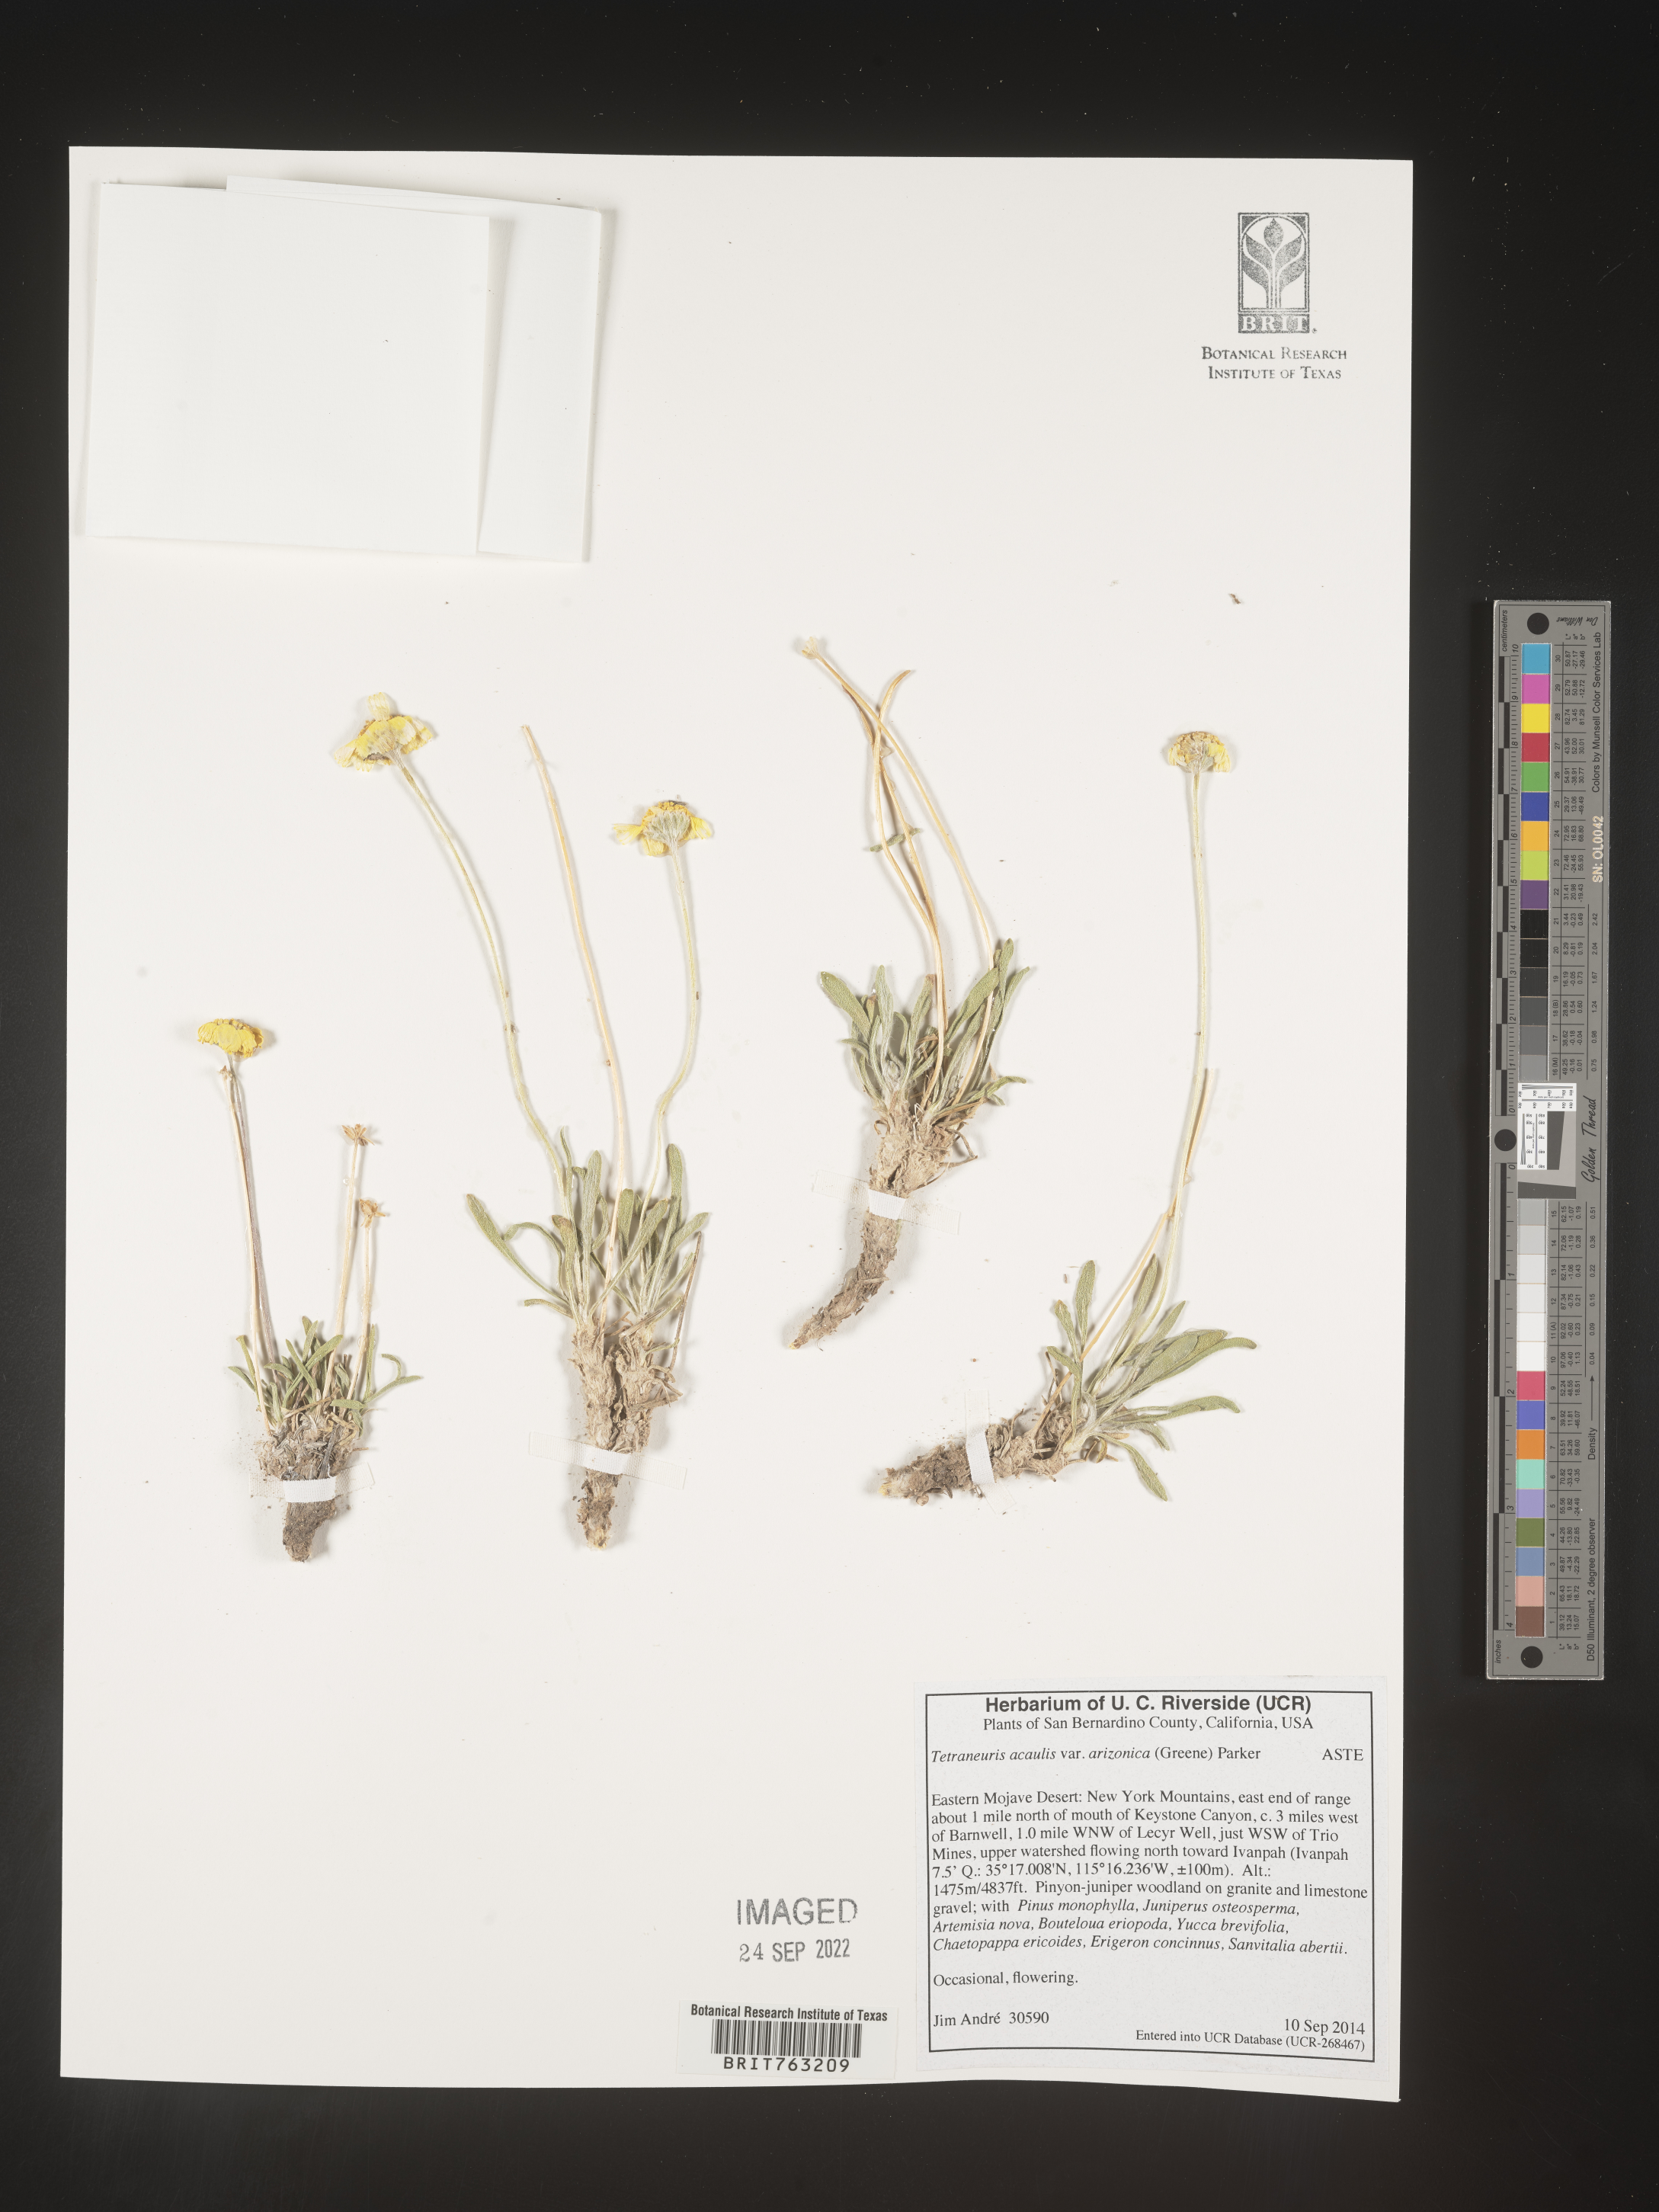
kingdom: Plantae
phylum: Tracheophyta
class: Magnoliopsida
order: Asterales
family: Asteraceae
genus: Tetraneuris
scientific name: Tetraneuris acaulis
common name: Butte marigold
